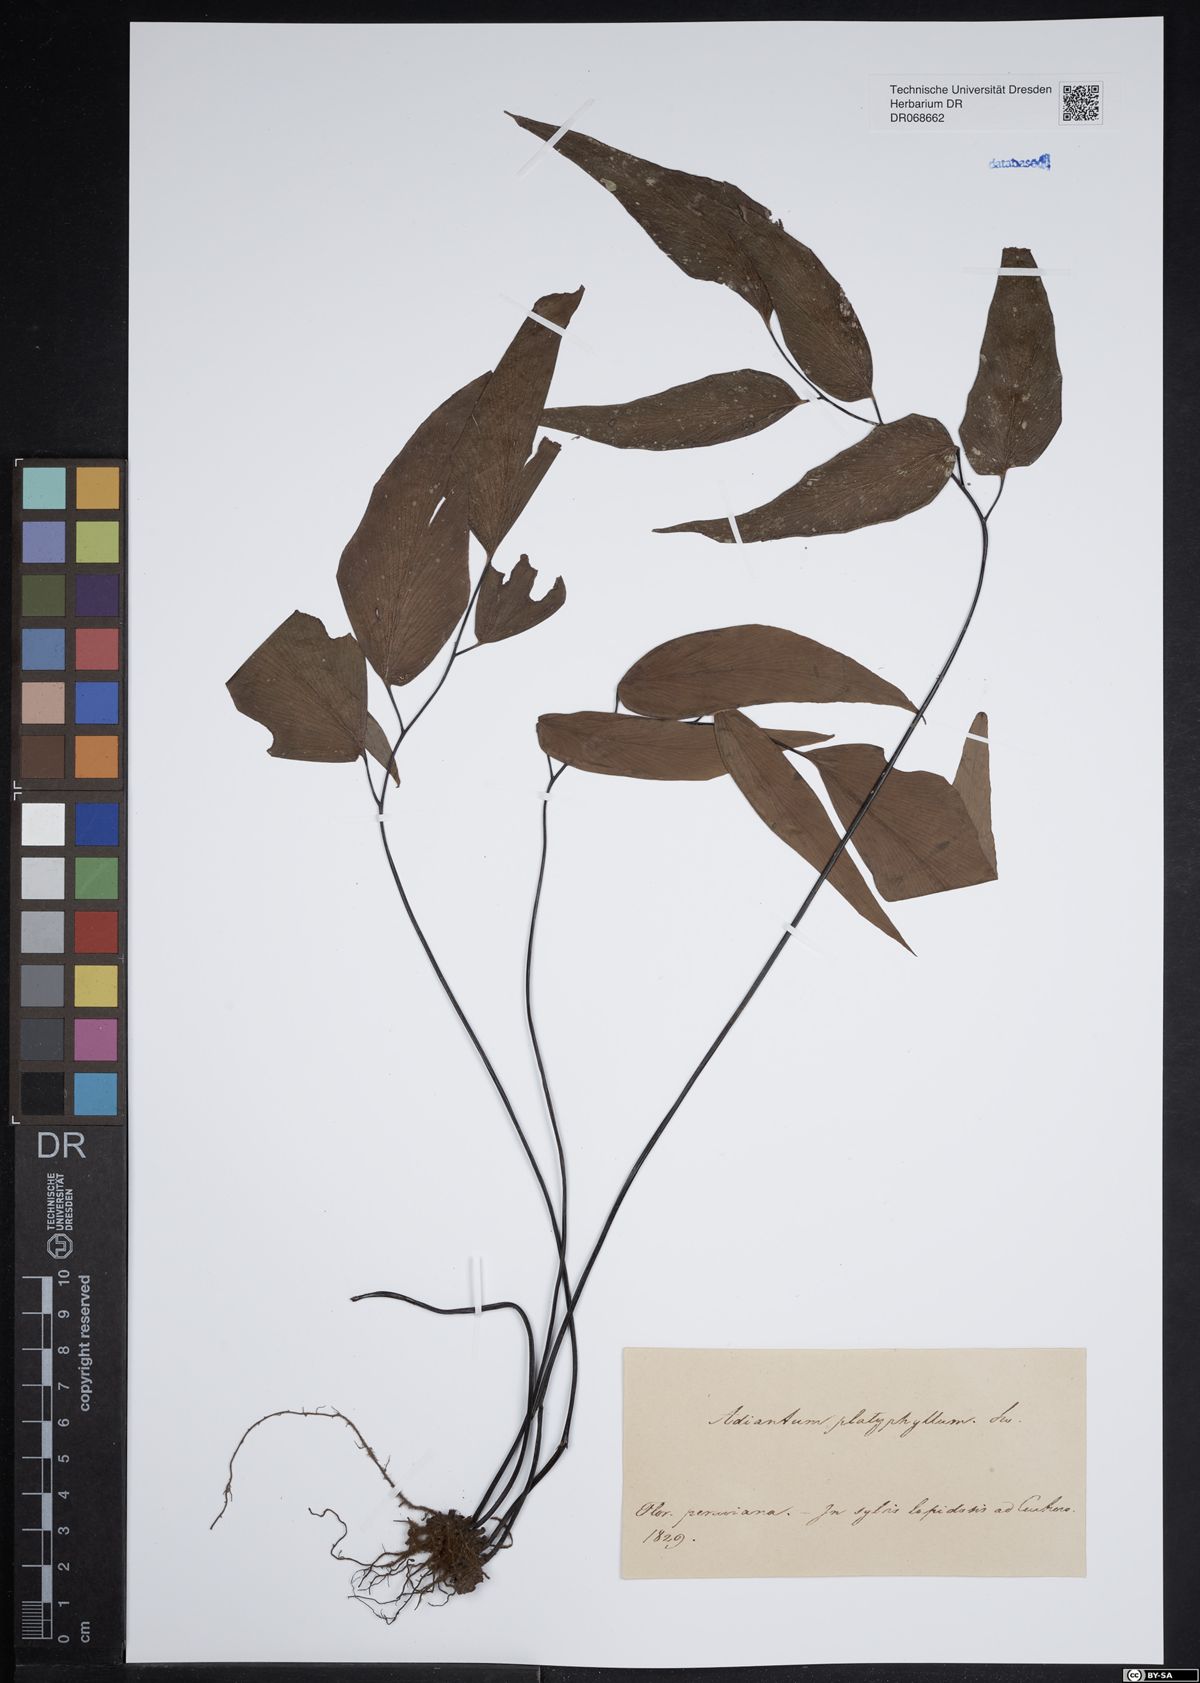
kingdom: Plantae
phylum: Tracheophyta
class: Polypodiopsida
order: Polypodiales
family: Pteridaceae
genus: Adiantum
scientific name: Adiantum platyphyllum
